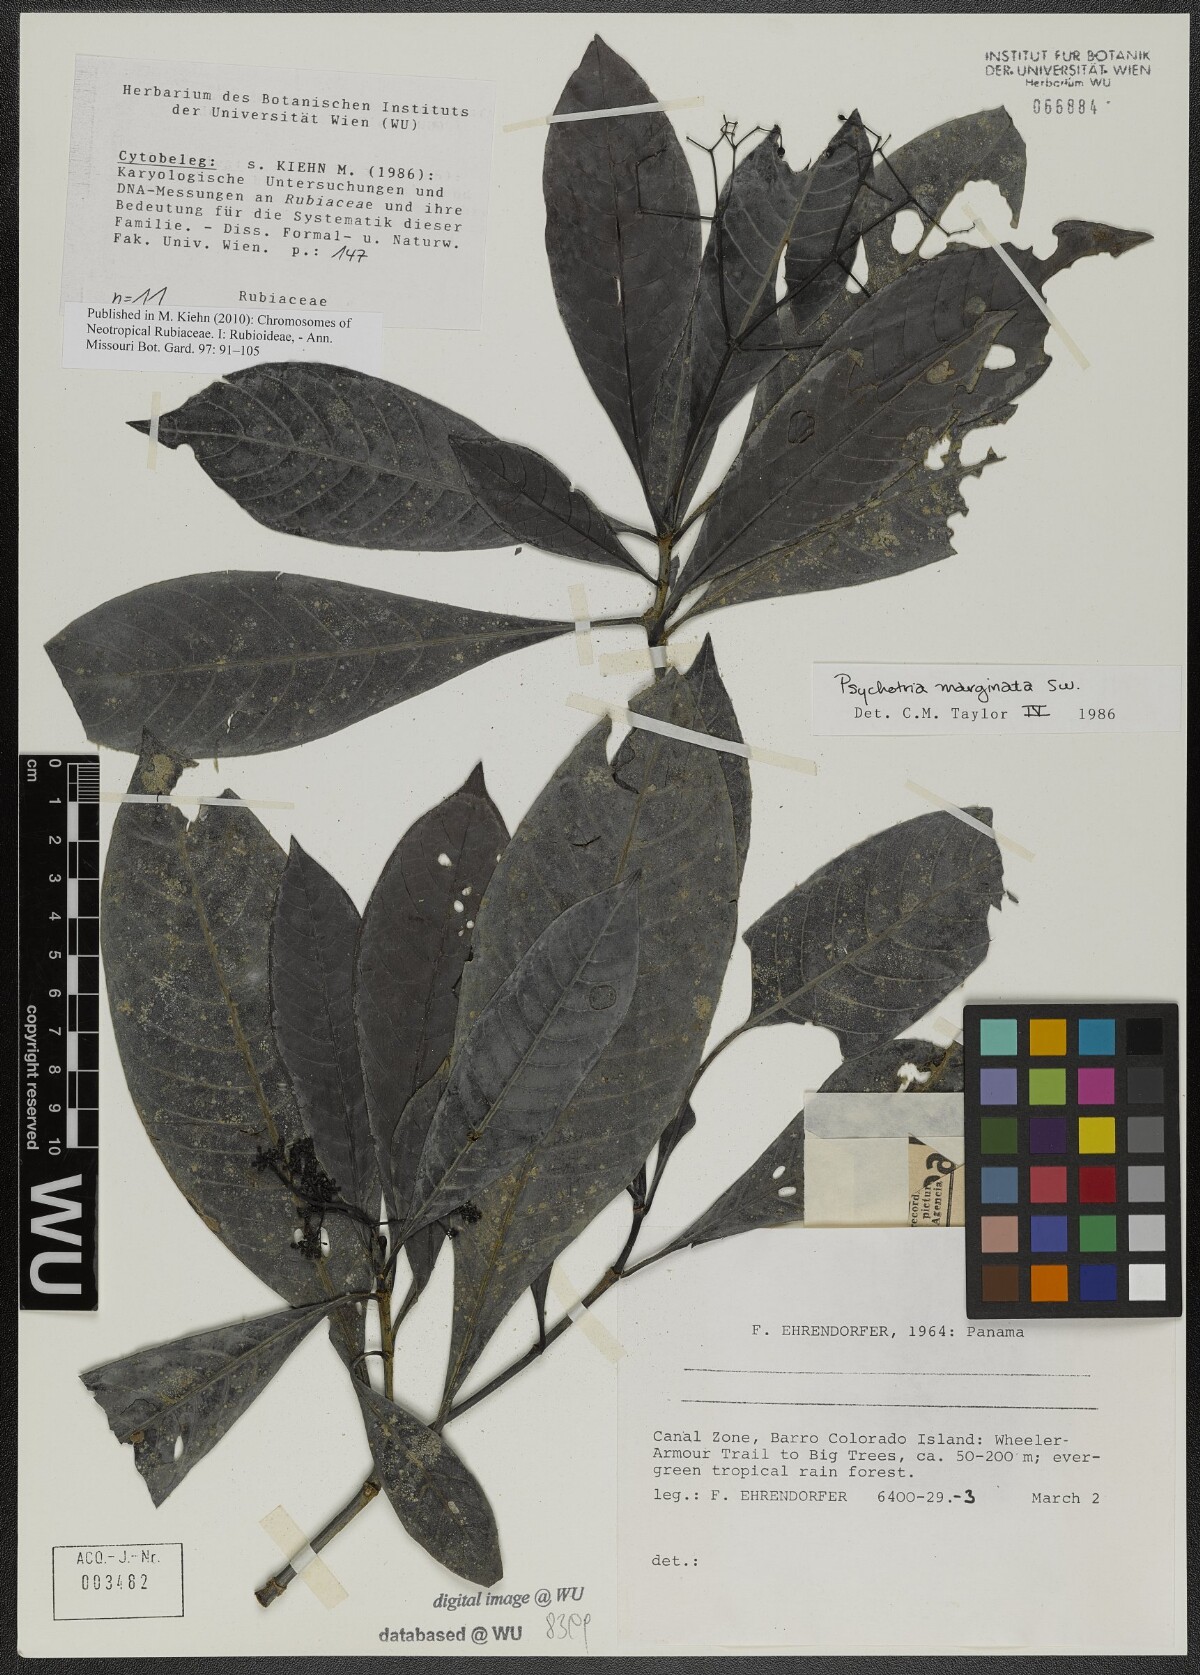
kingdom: Plantae
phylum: Tracheophyta
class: Magnoliopsida
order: Gentianales
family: Rubiaceae
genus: Psychotria
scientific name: Psychotria marginata
